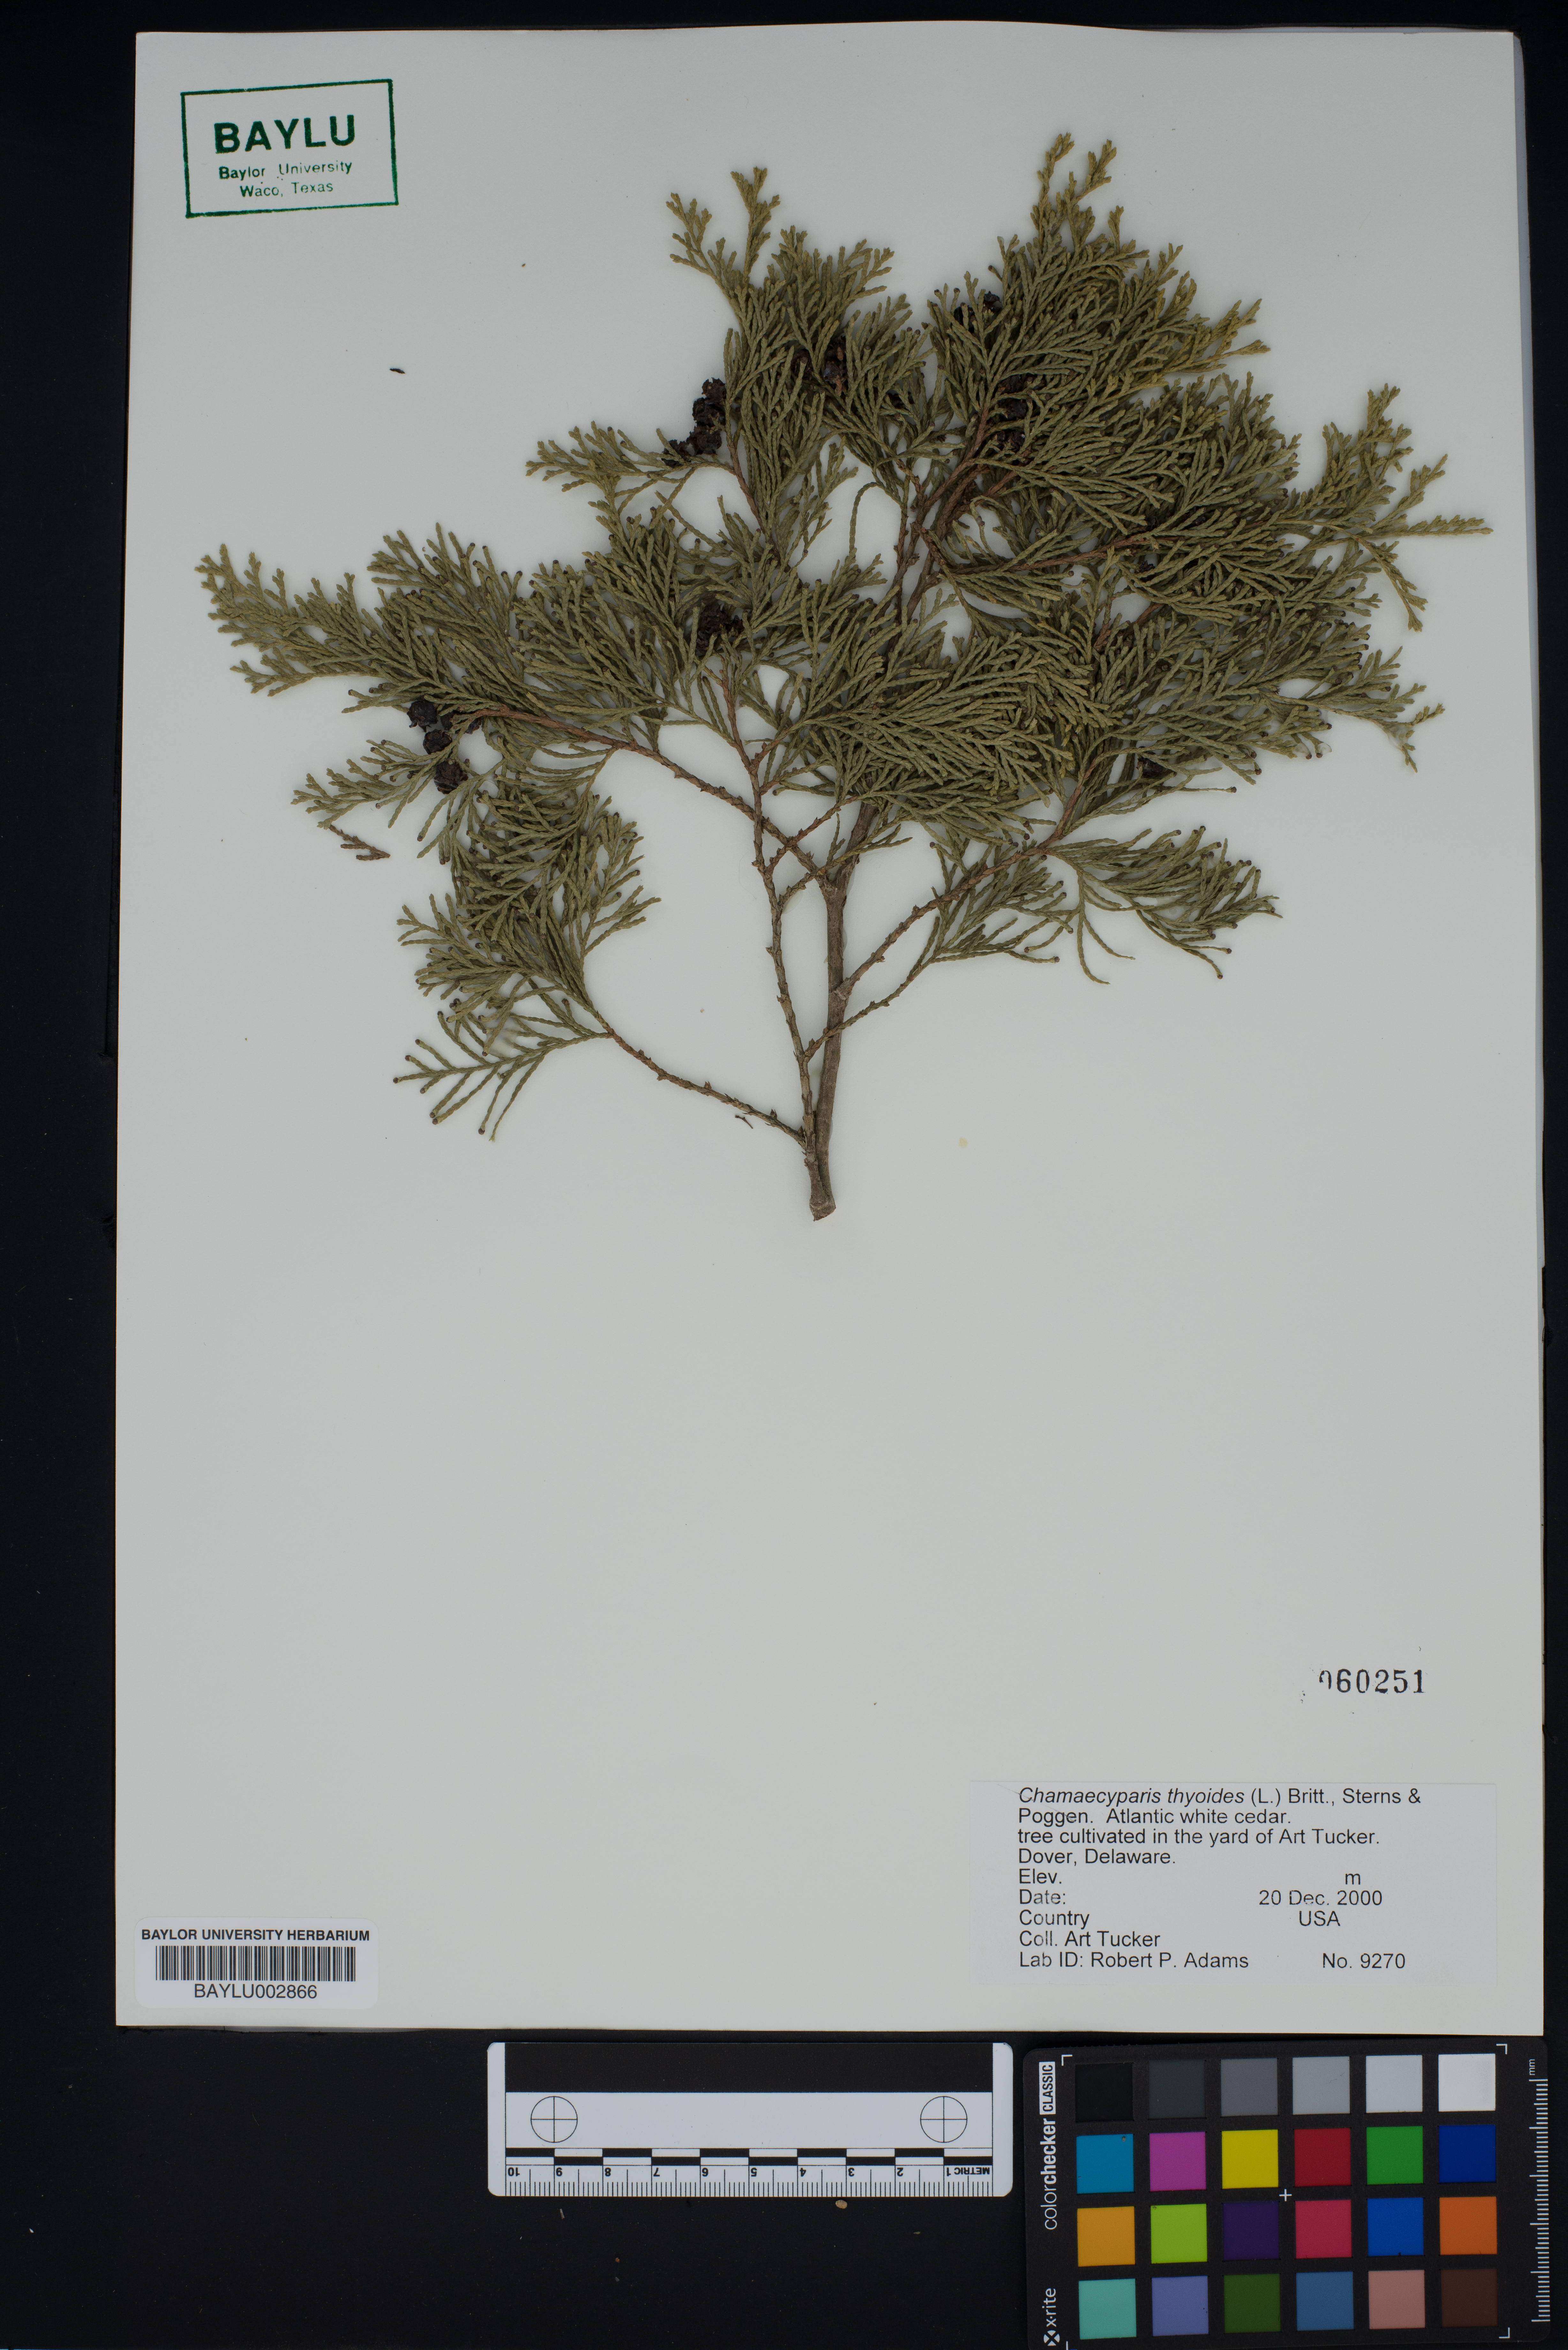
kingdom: Plantae
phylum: Tracheophyta
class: Pinopsida
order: Pinales
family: Cupressaceae
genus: Chamaecyparis
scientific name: Chamaecyparis thyoides
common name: Atlantic white cedar
